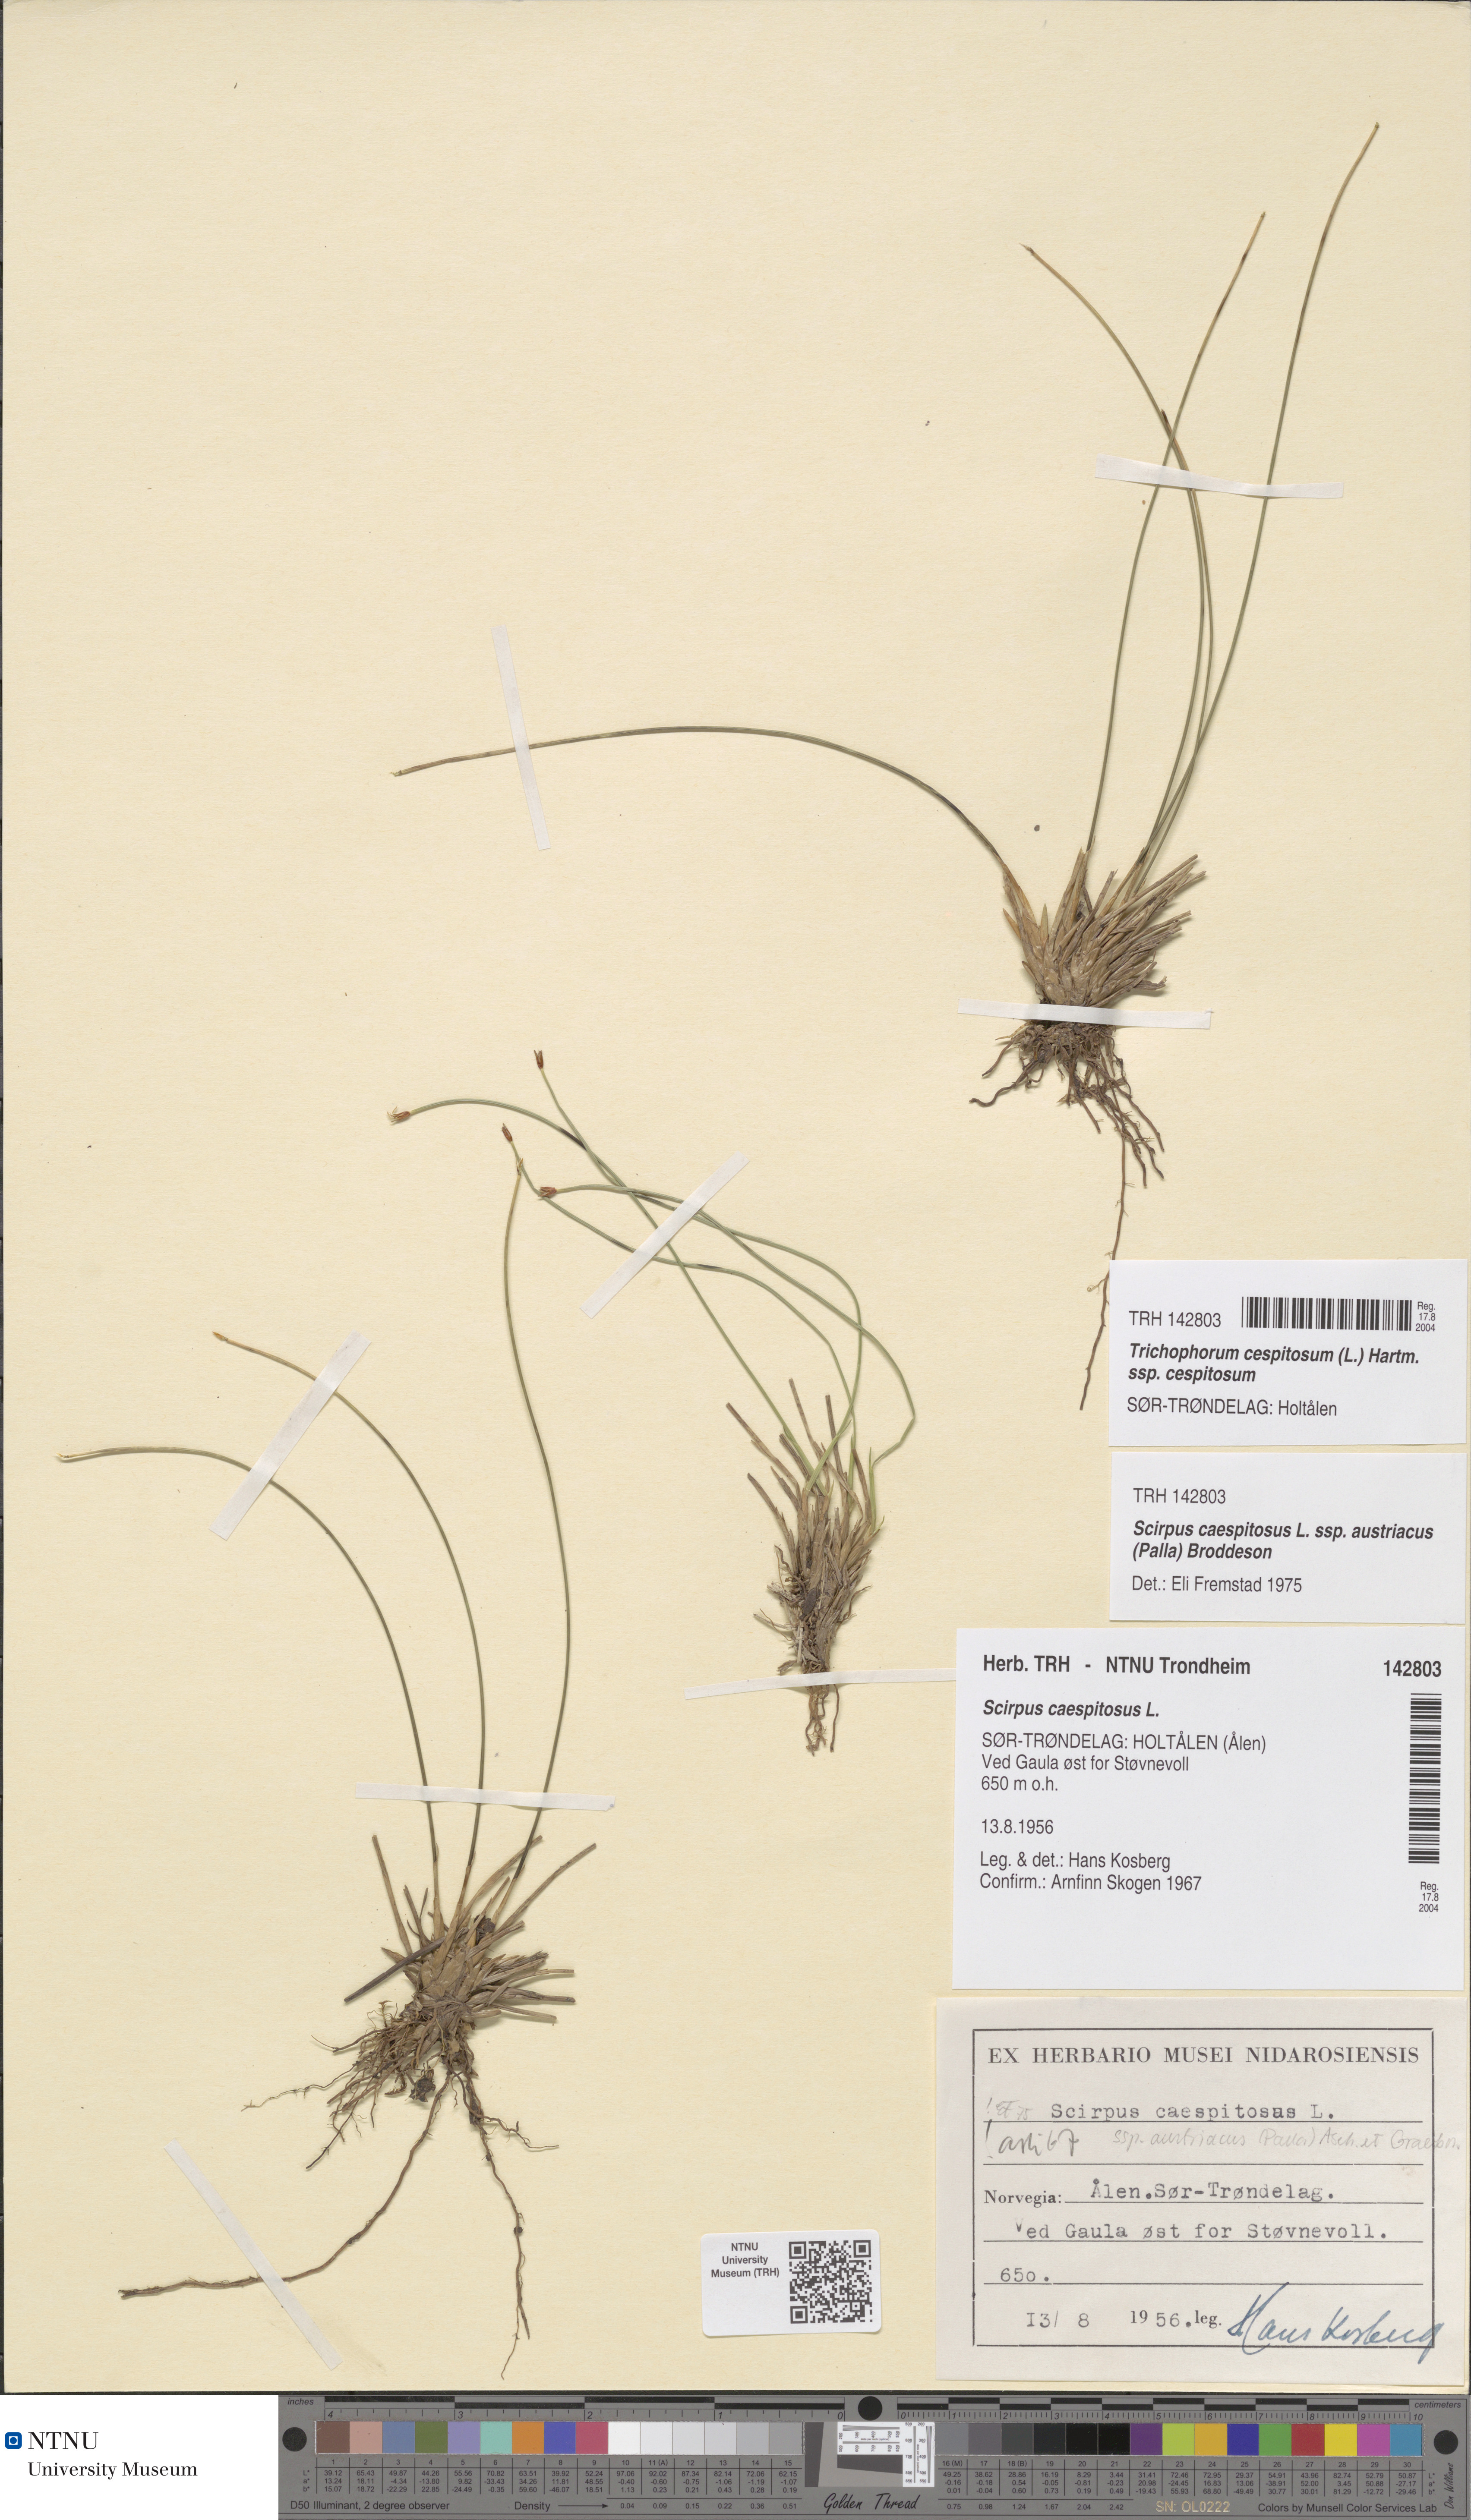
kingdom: Plantae
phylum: Tracheophyta
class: Liliopsida
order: Poales
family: Cyperaceae
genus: Trichophorum
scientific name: Trichophorum cespitosum
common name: Cespitose bulrush
